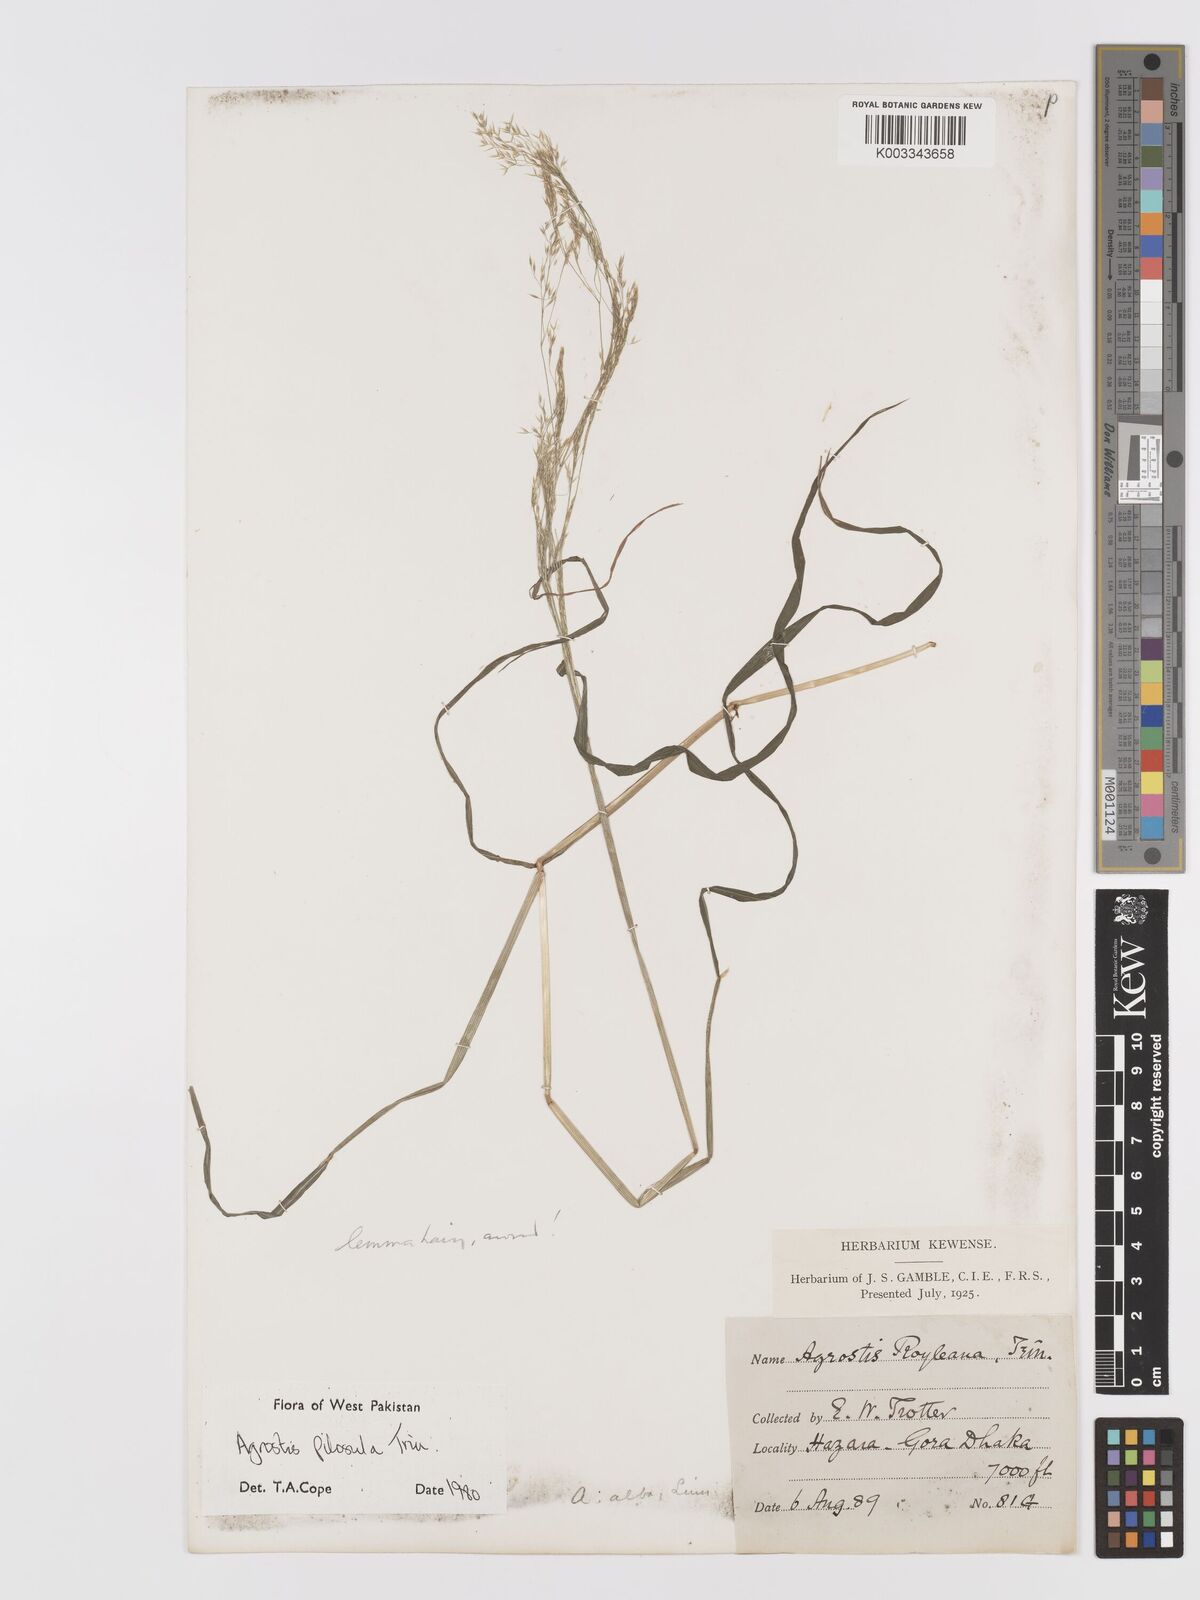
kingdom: Plantae
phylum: Tracheophyta
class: Liliopsida
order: Poales
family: Poaceae
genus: Agrostis
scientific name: Agrostis pilosula
